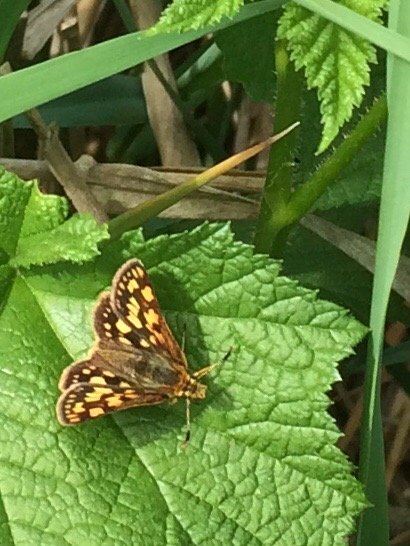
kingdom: Animalia
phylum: Arthropoda
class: Insecta
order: Lepidoptera
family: Hesperiidae
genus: Carterocephalus
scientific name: Carterocephalus palaemon
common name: Chequered Skipper
